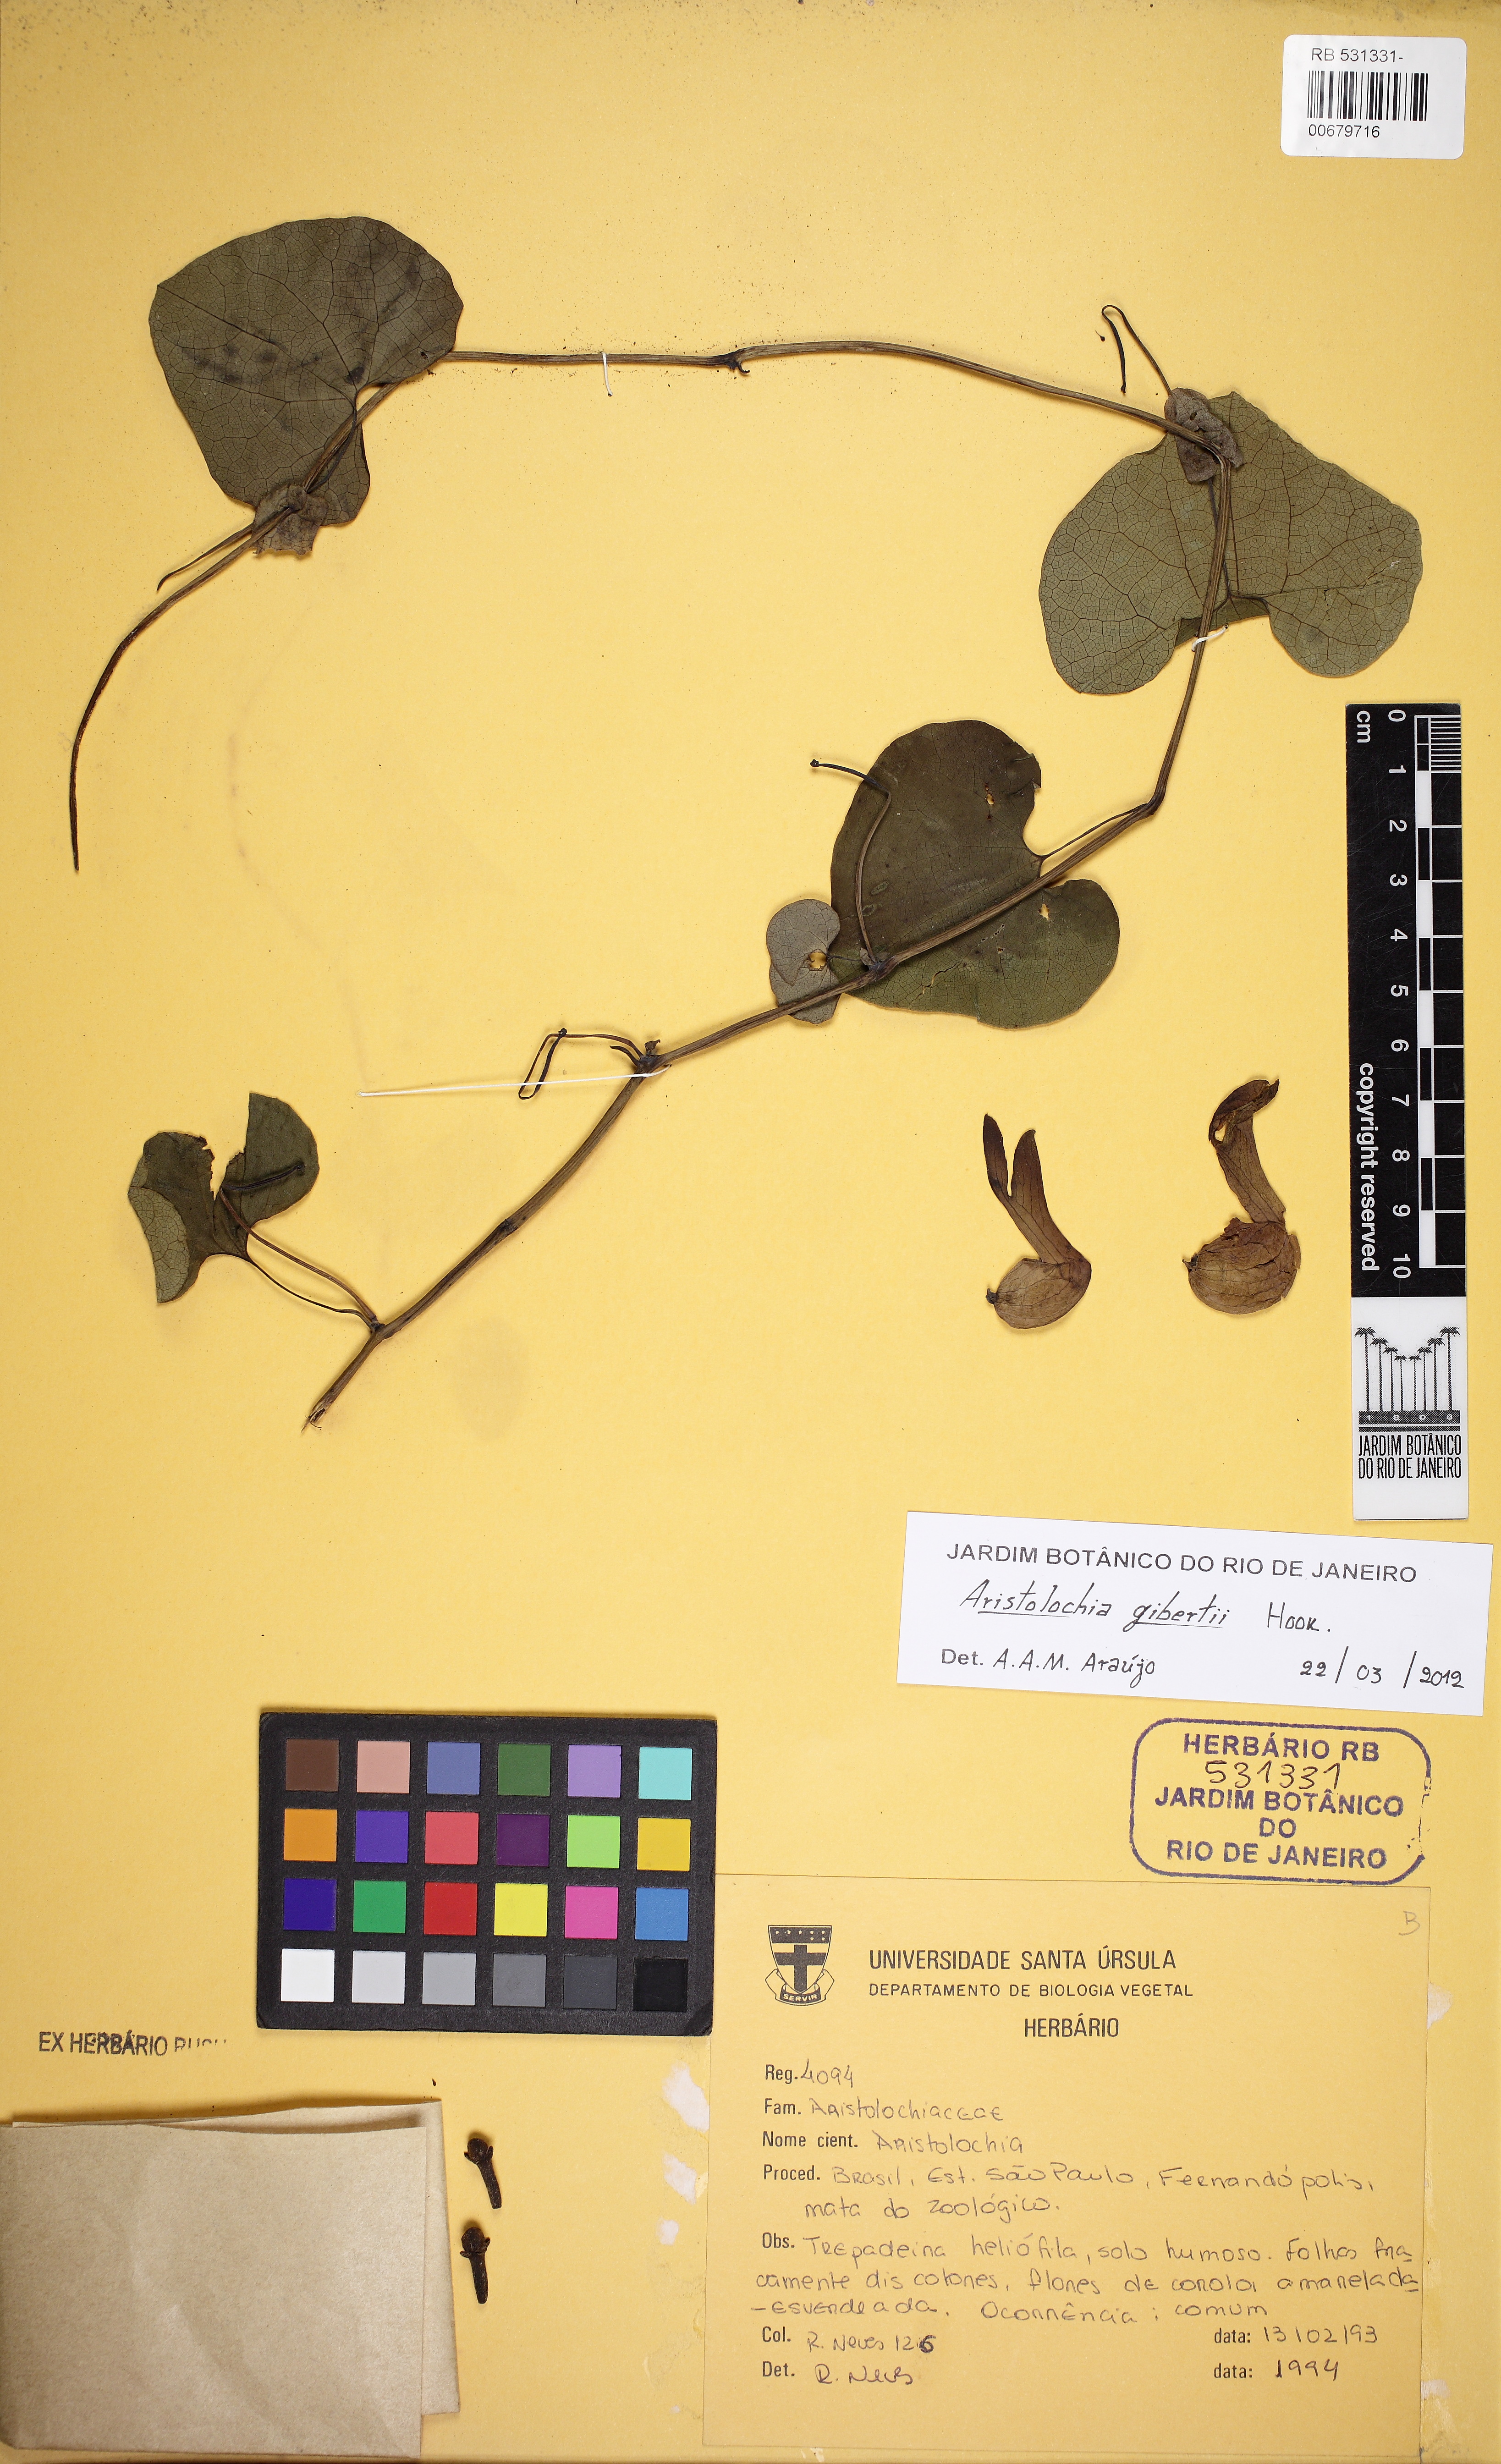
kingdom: Plantae
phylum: Tracheophyta
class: Magnoliopsida
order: Piperales
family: Aristolochiaceae
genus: Aristolochia
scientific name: Aristolochia
